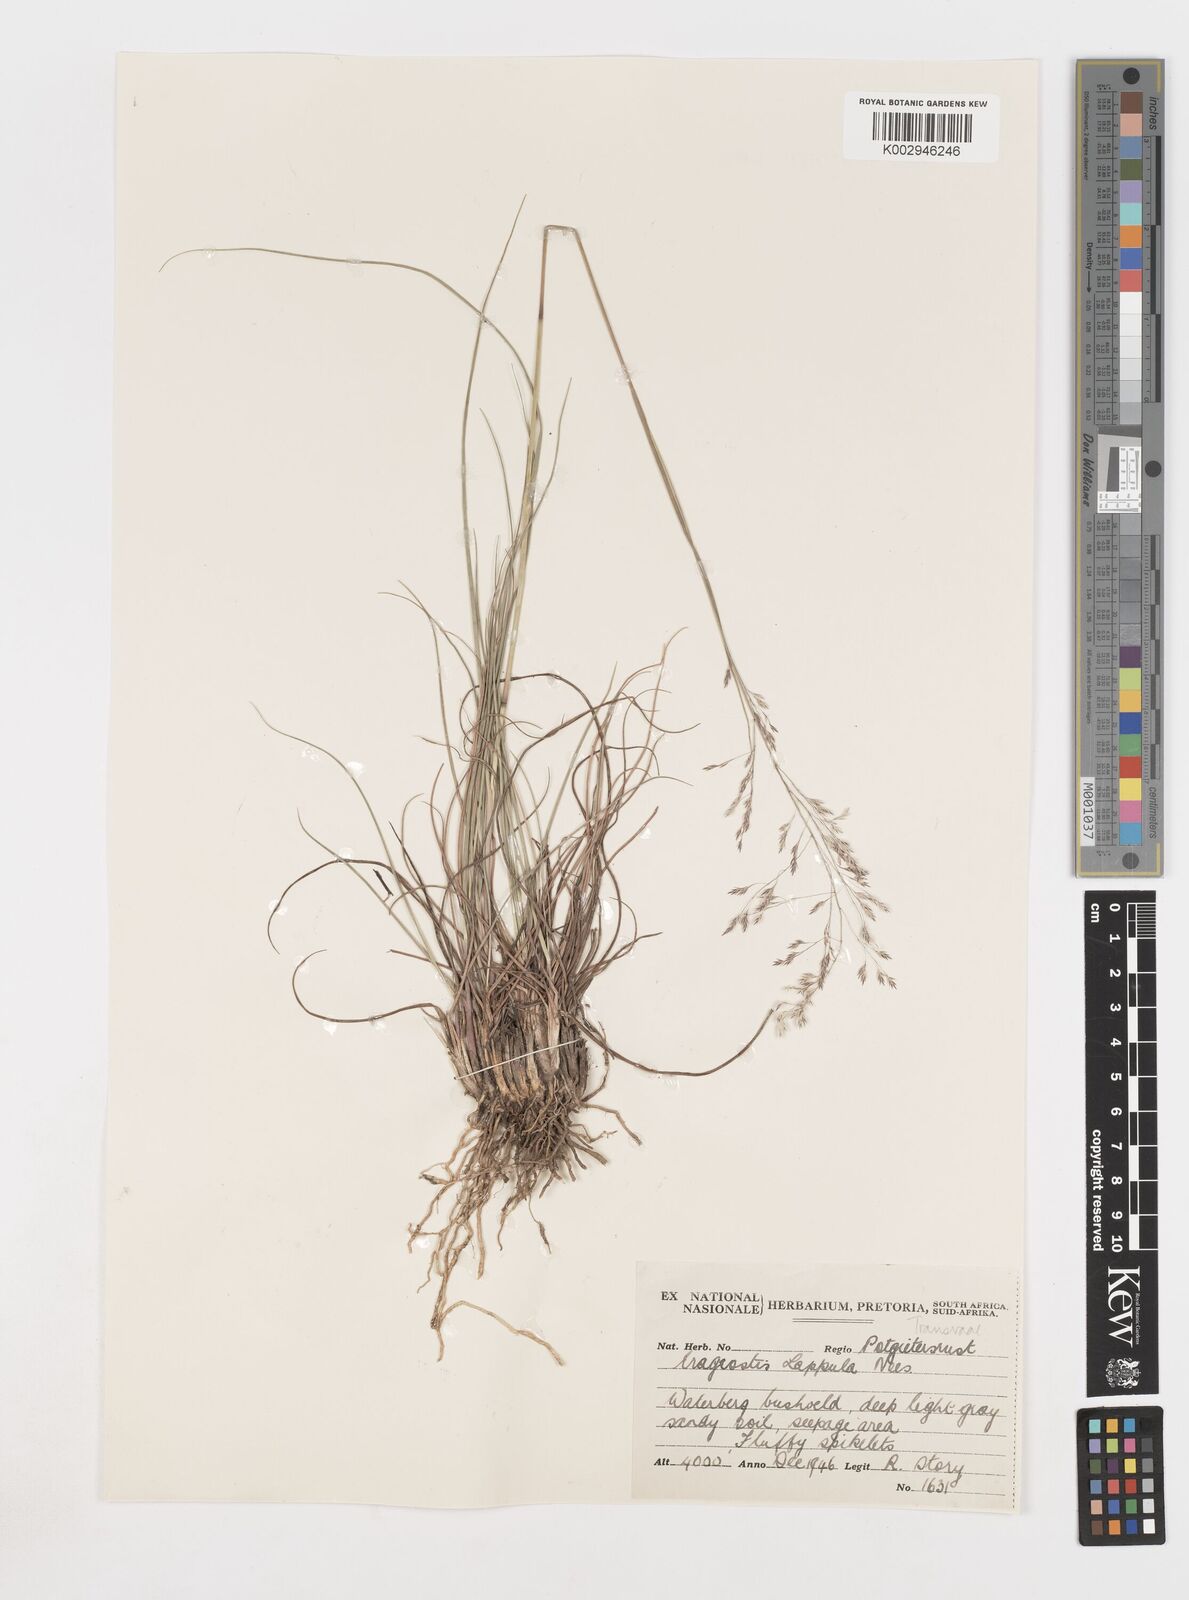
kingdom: Plantae
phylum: Tracheophyta
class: Liliopsida
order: Poales
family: Poaceae
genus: Eragrostis
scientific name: Eragrostis lappula
